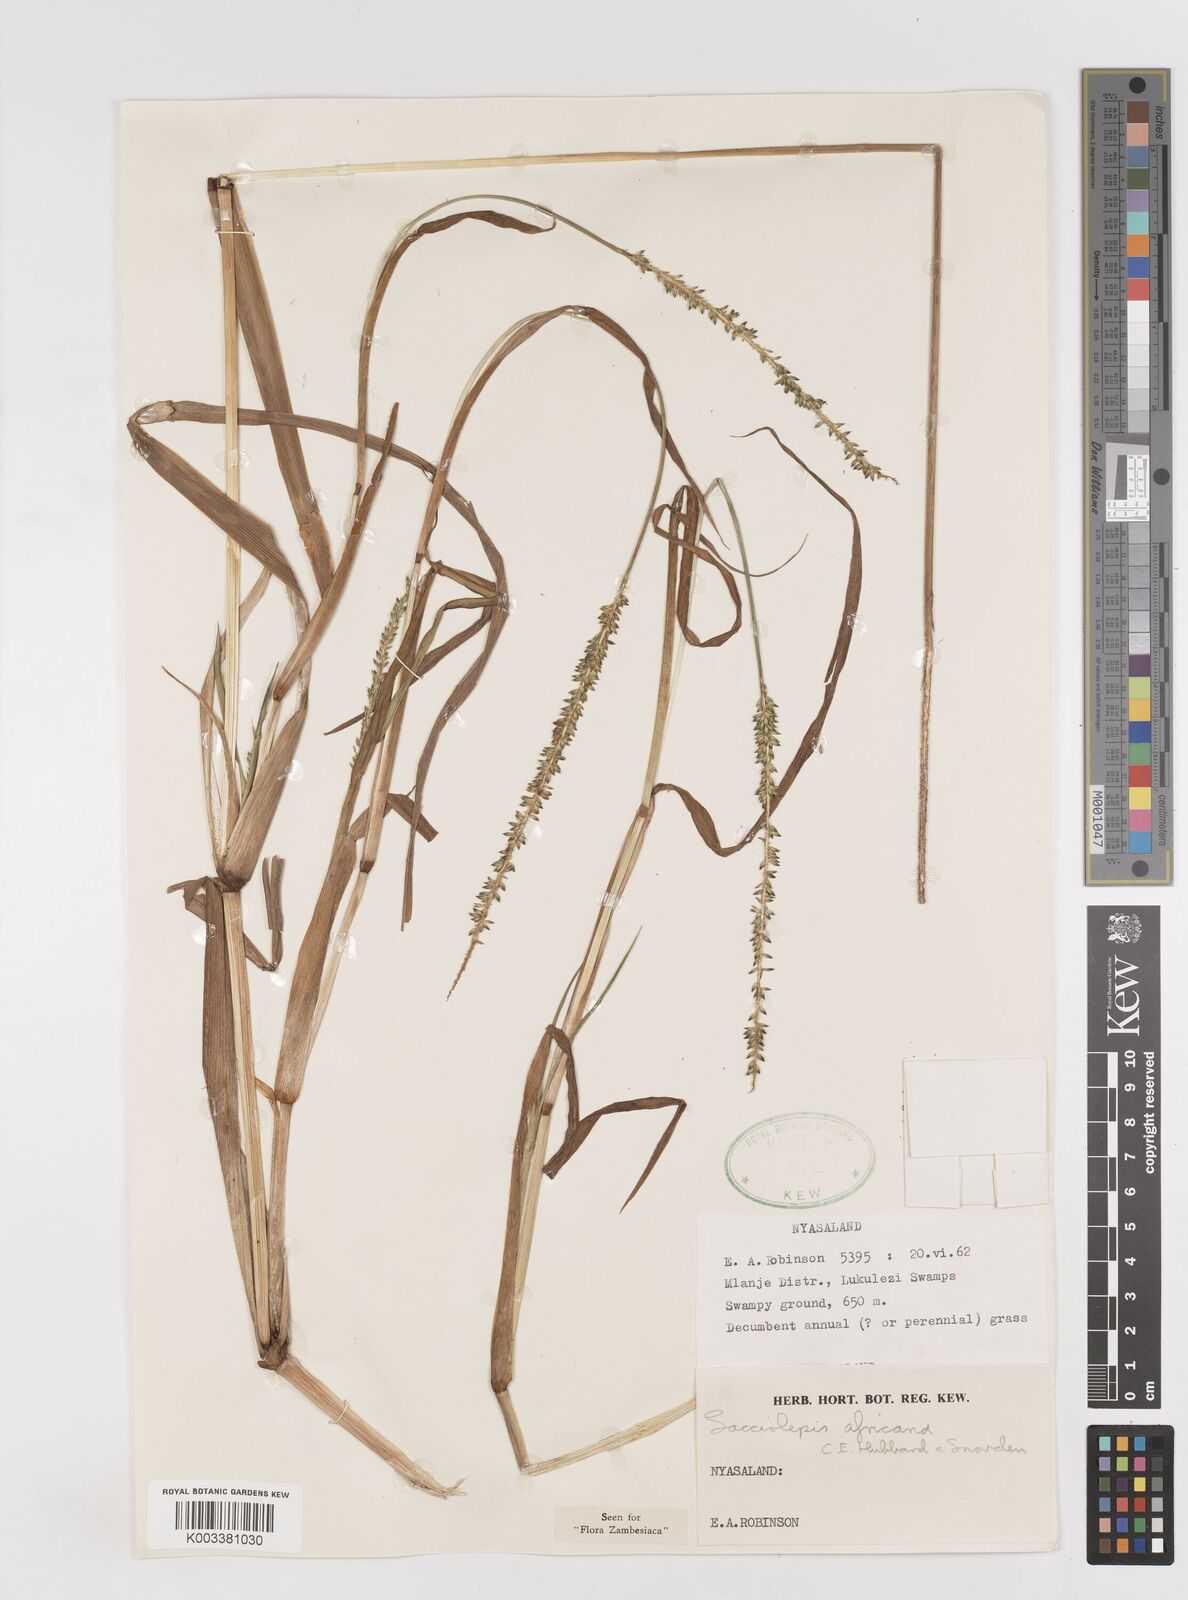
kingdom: Plantae
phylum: Tracheophyta
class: Liliopsida
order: Poales
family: Poaceae
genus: Sacciolepis
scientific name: Sacciolepis africana
